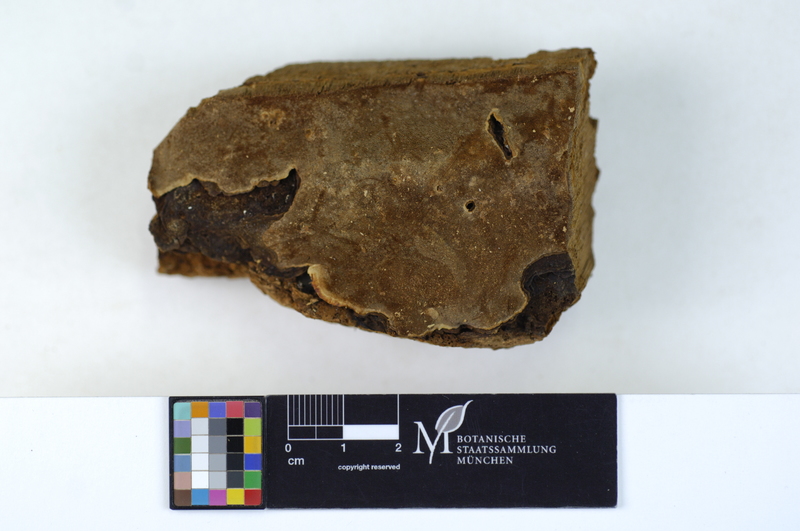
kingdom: Fungi
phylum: Basidiomycota
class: Agaricomycetes
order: Hymenochaetales
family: Hymenochaetaceae
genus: Phellopilus
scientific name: Phellopilus nigrolimitatus
